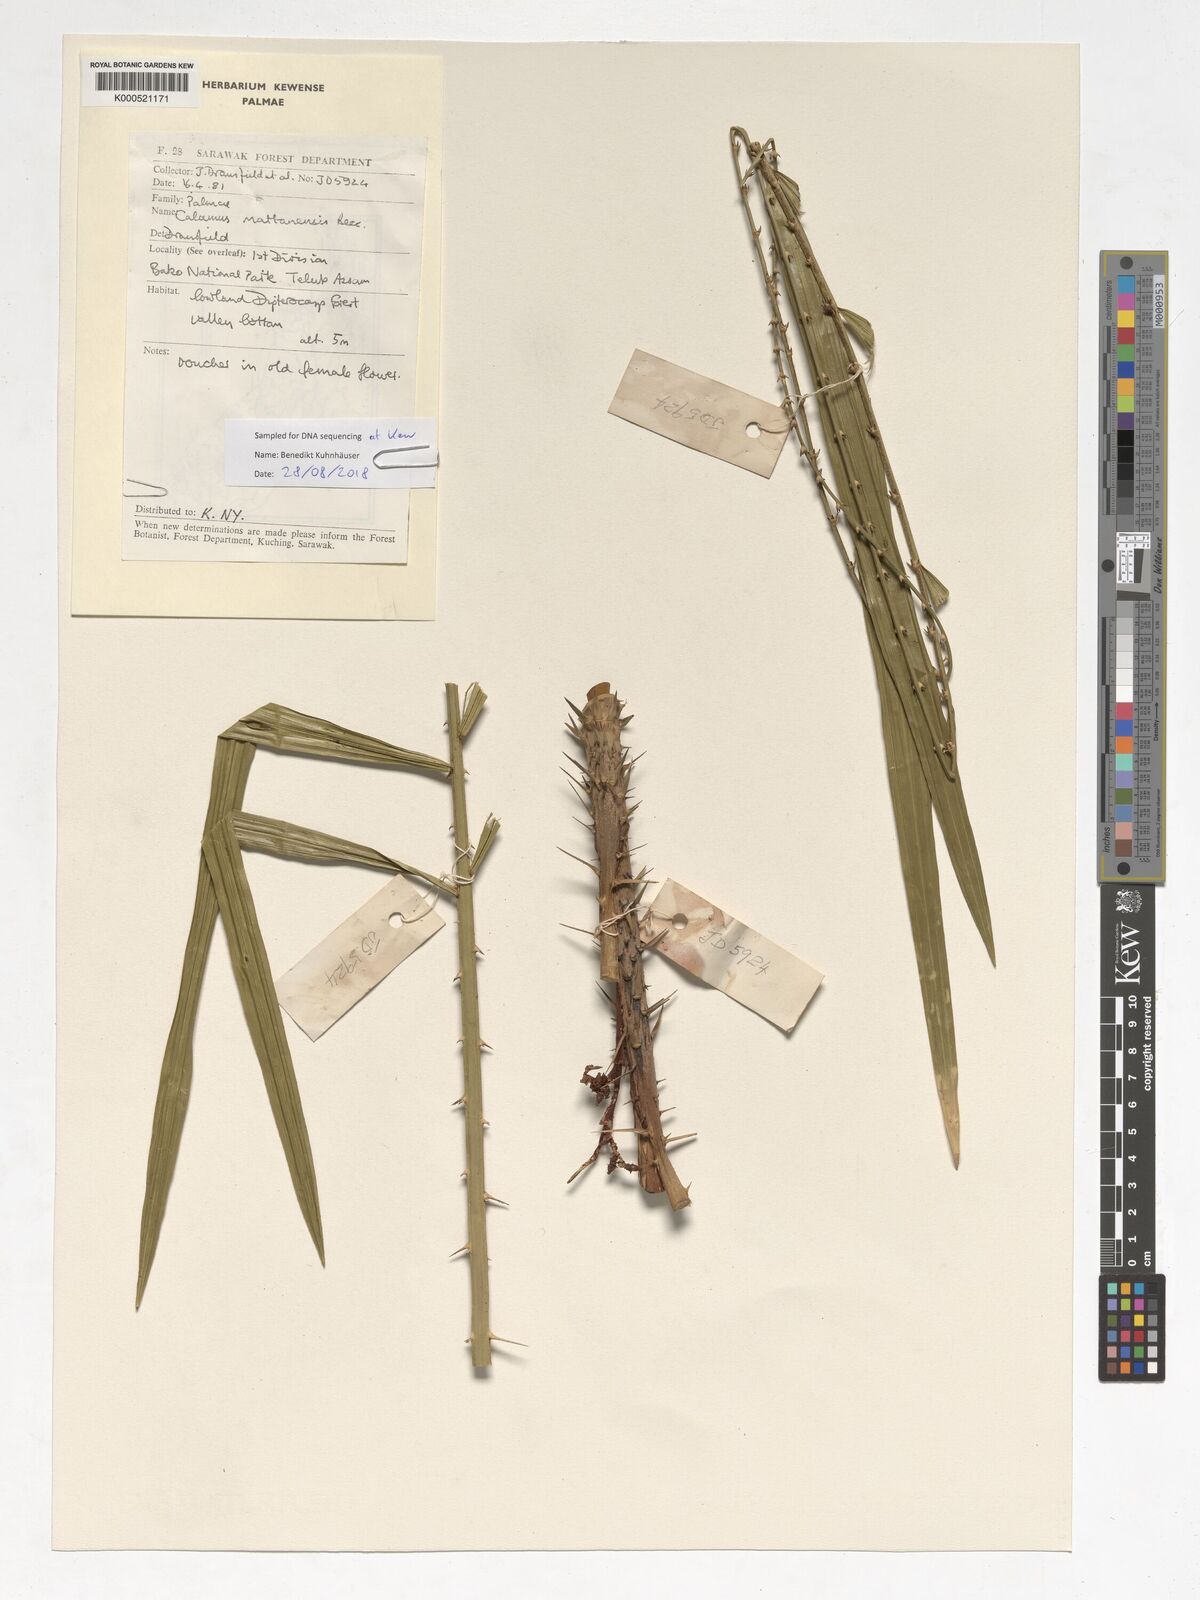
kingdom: Plantae
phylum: Tracheophyta
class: Liliopsida
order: Arecales
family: Arecaceae
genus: Calamus
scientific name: Calamus
